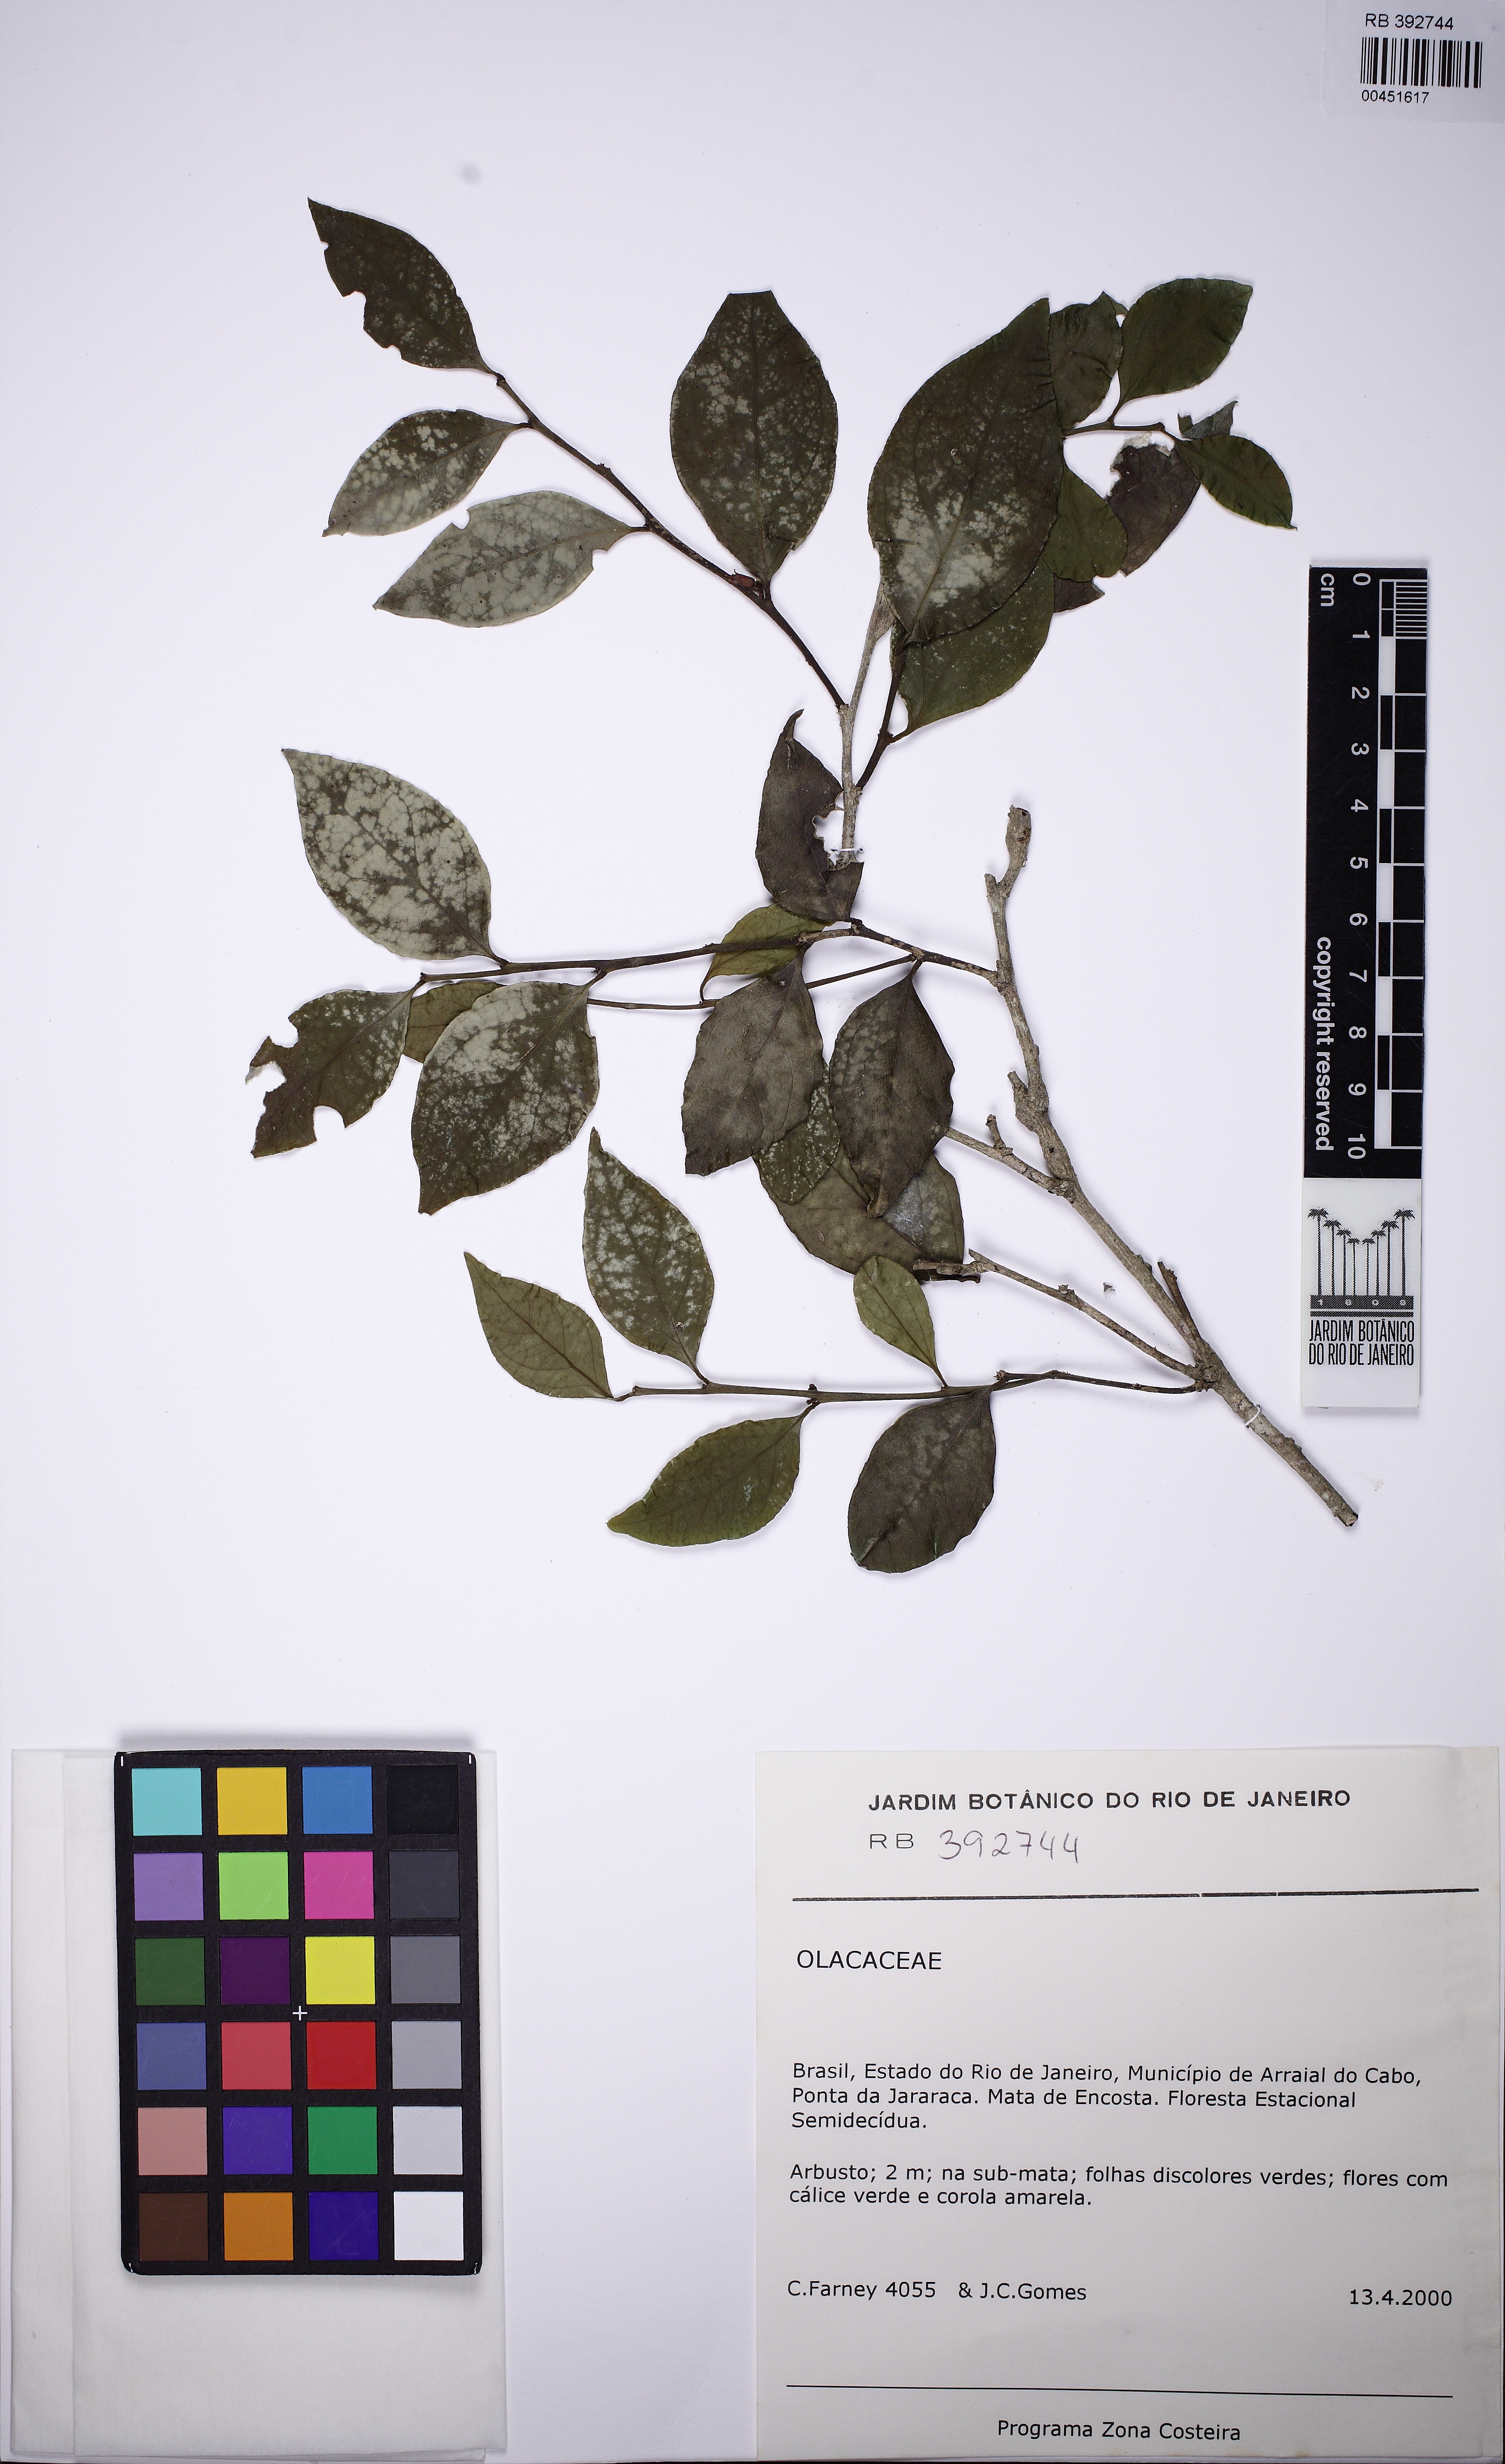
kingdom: Plantae
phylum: Tracheophyta
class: Magnoliopsida
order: Santalales
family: Olacaceae
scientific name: Olacaceae
